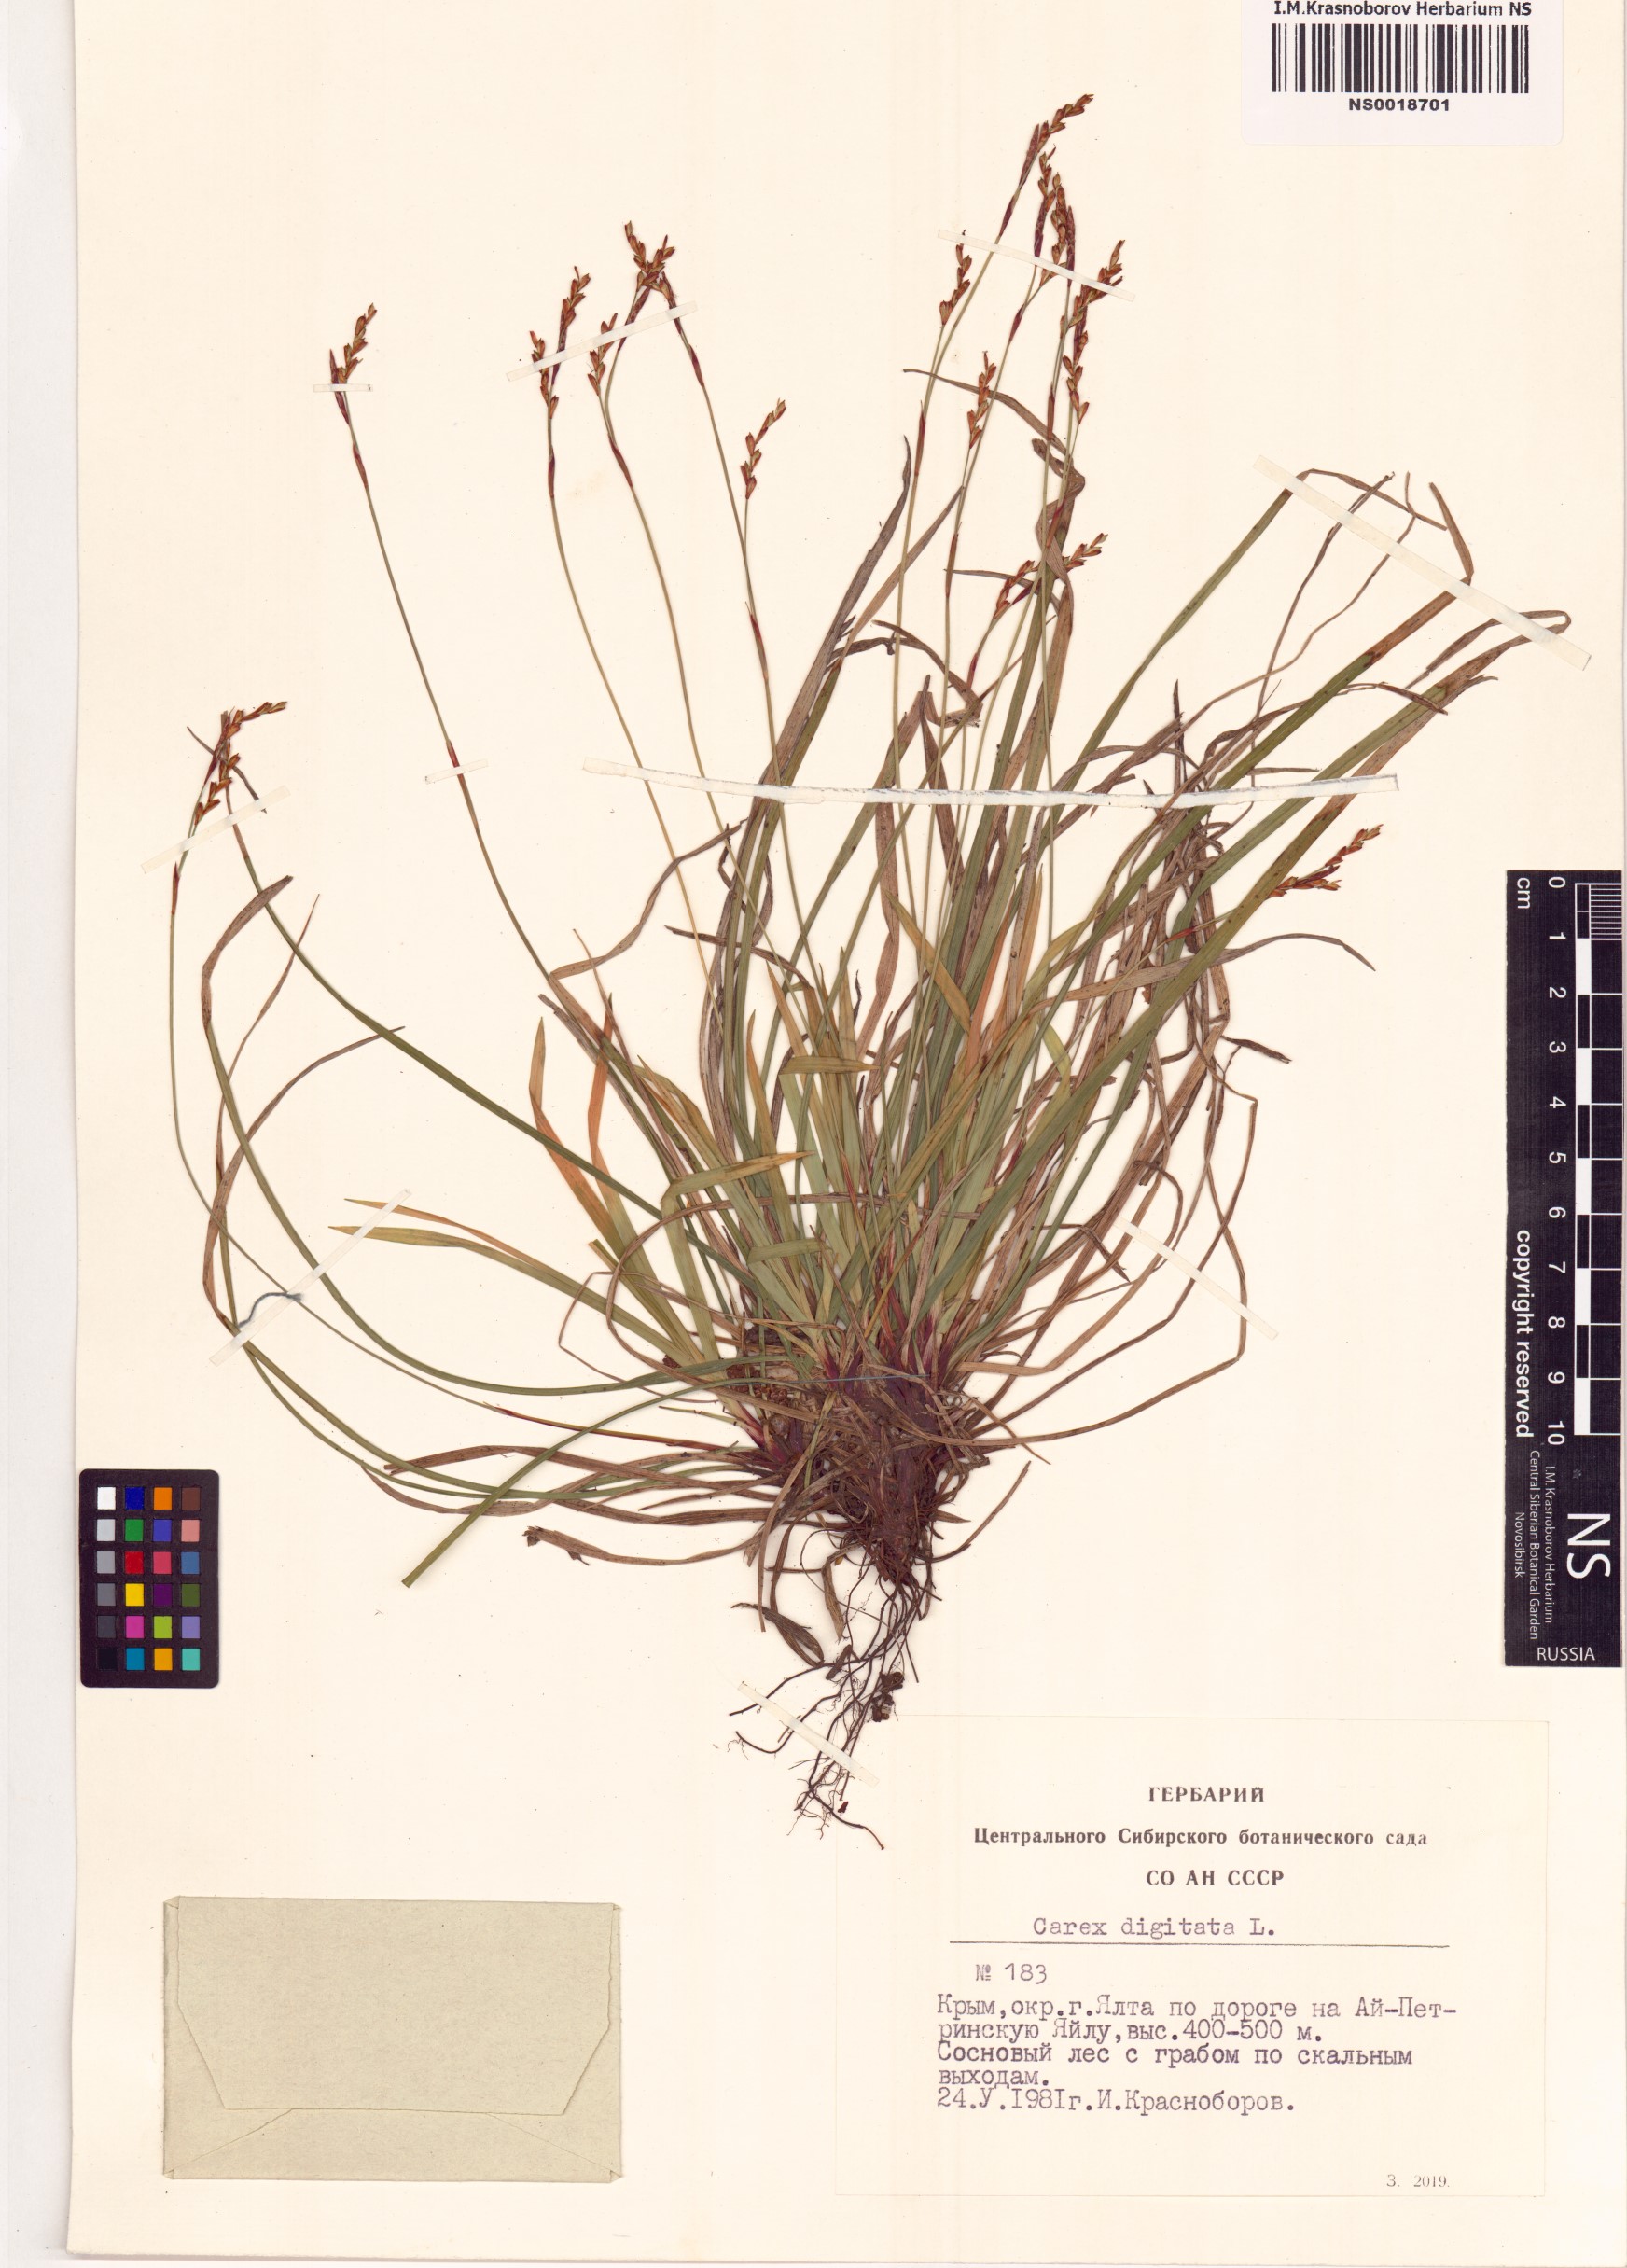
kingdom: Plantae
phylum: Tracheophyta
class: Liliopsida
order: Poales
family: Cyperaceae
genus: Carex
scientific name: Carex digitata
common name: Fingered sedge
